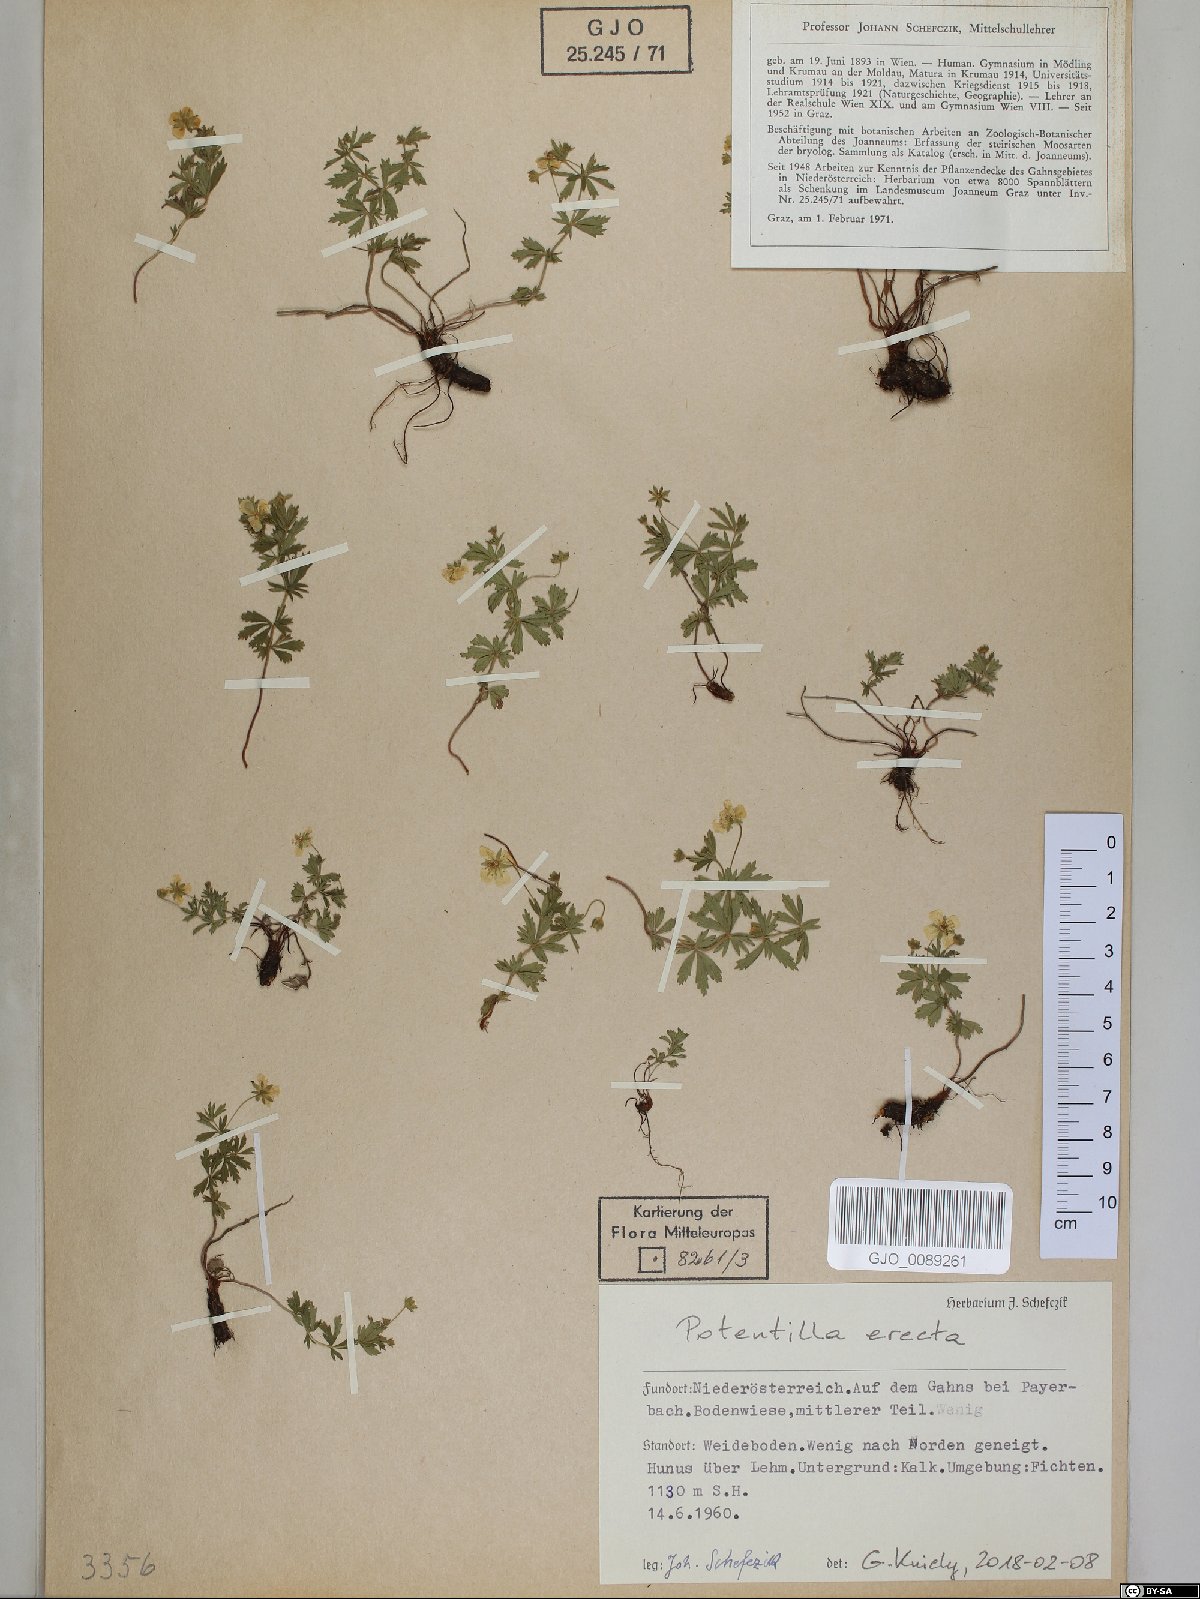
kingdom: Plantae
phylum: Tracheophyta
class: Magnoliopsida
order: Rosales
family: Rosaceae
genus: Potentilla
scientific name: Potentilla erecta
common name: Tormentil
